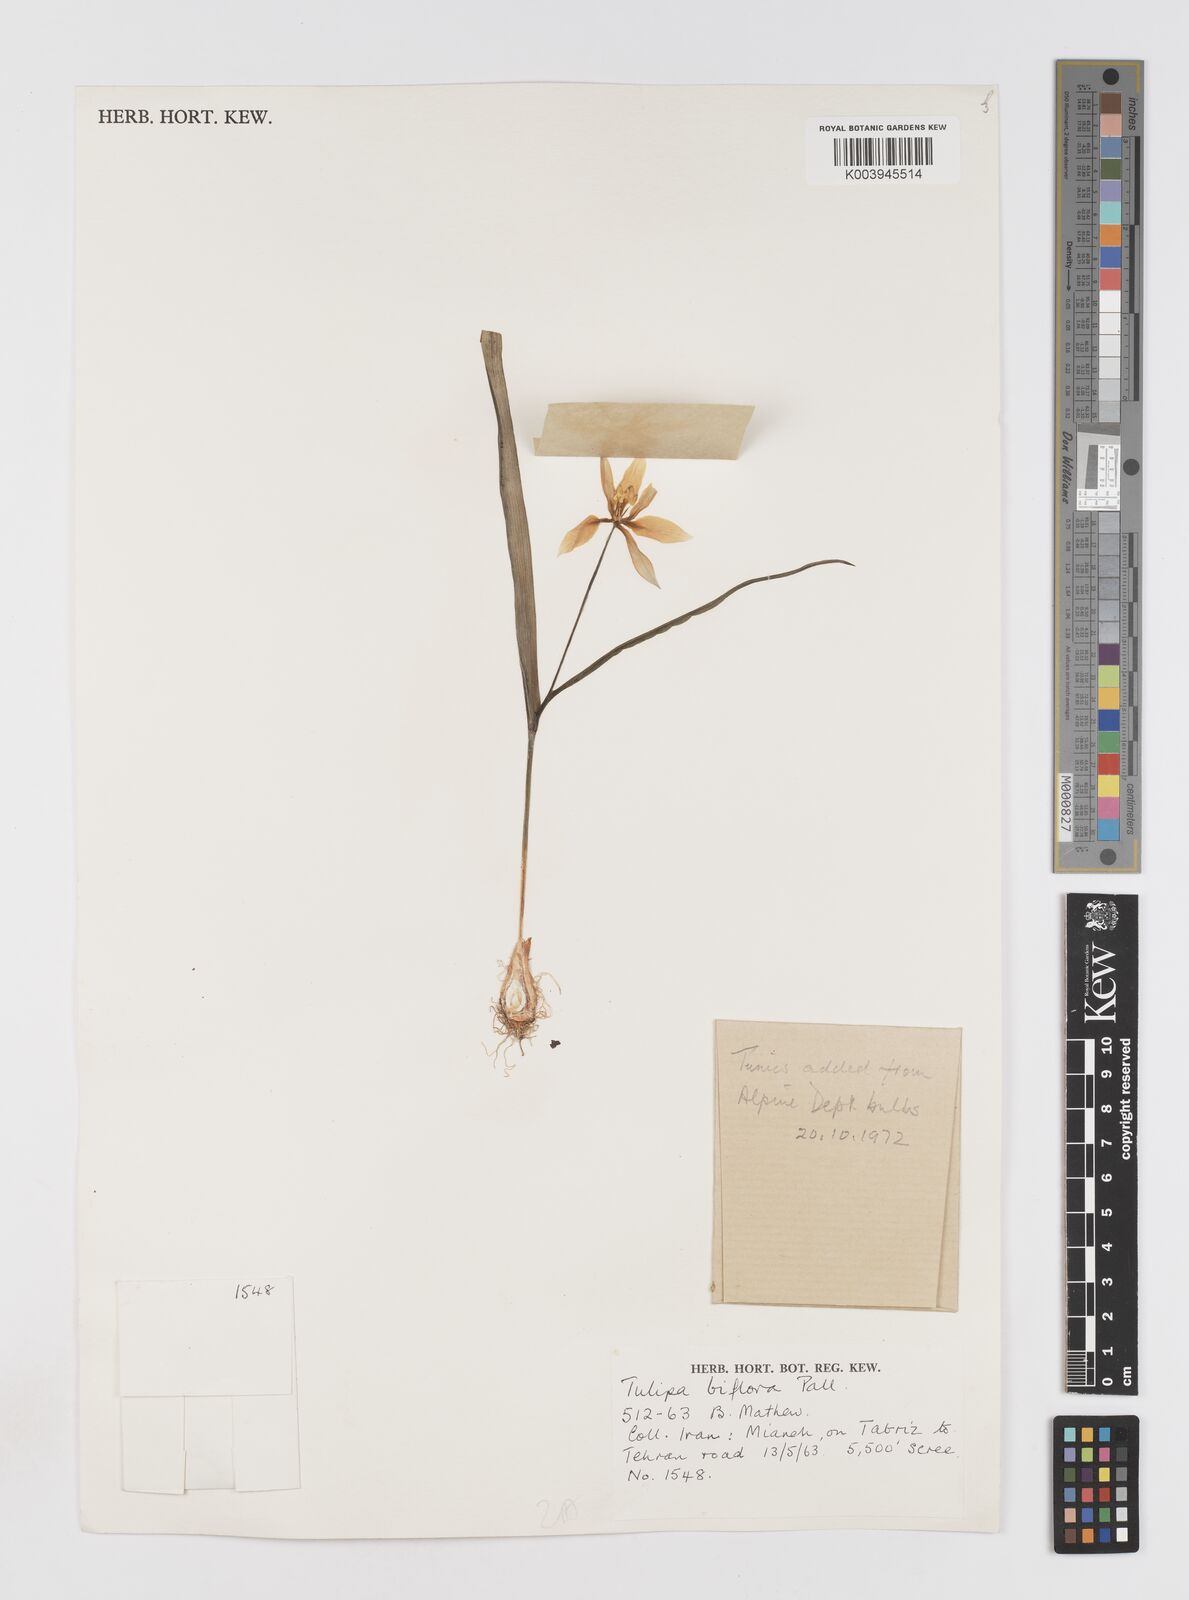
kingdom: Plantae
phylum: Tracheophyta
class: Liliopsida
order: Liliales
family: Liliaceae
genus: Tulipa
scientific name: Tulipa biflora
